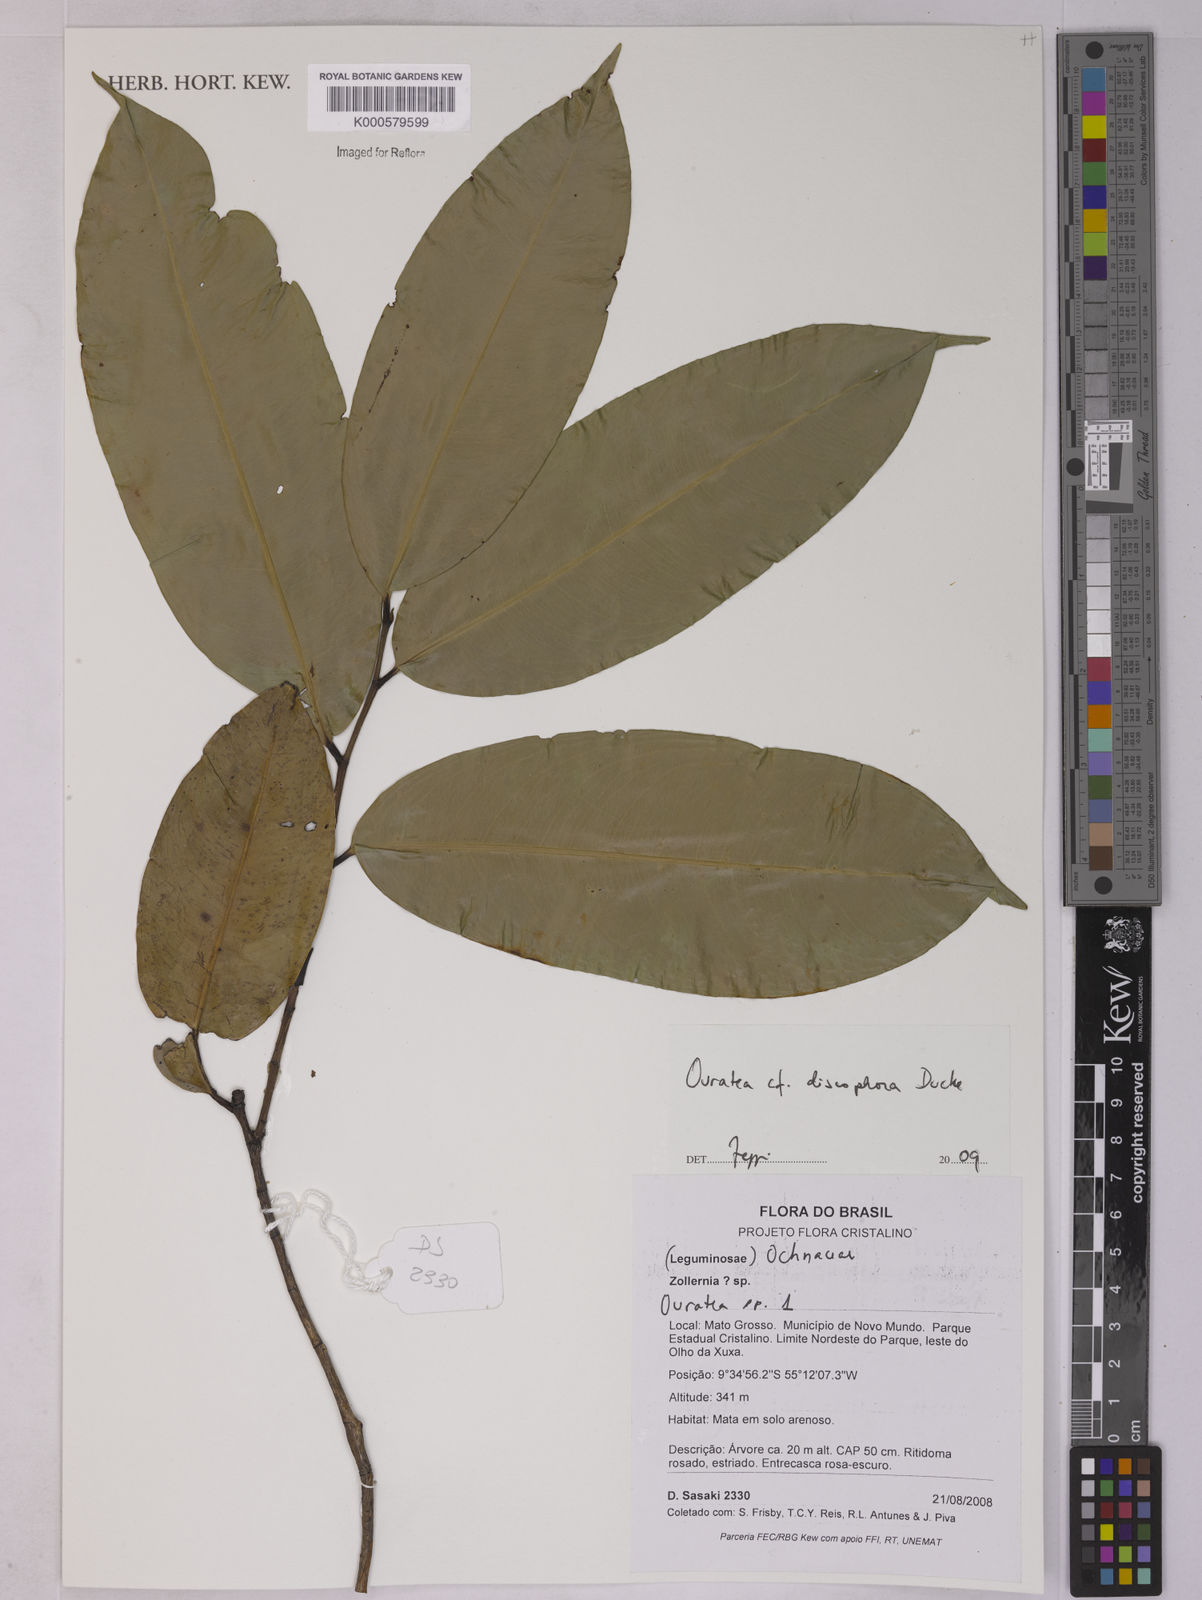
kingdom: Plantae
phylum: Tracheophyta
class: Magnoliopsida
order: Malpighiales
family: Ochnaceae
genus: Ouratea
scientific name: Ouratea discophora
